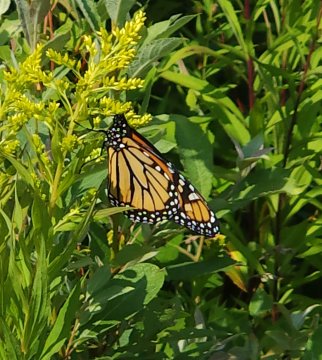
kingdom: Animalia
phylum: Arthropoda
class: Insecta
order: Lepidoptera
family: Nymphalidae
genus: Danaus
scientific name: Danaus plexippus
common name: Monarch
